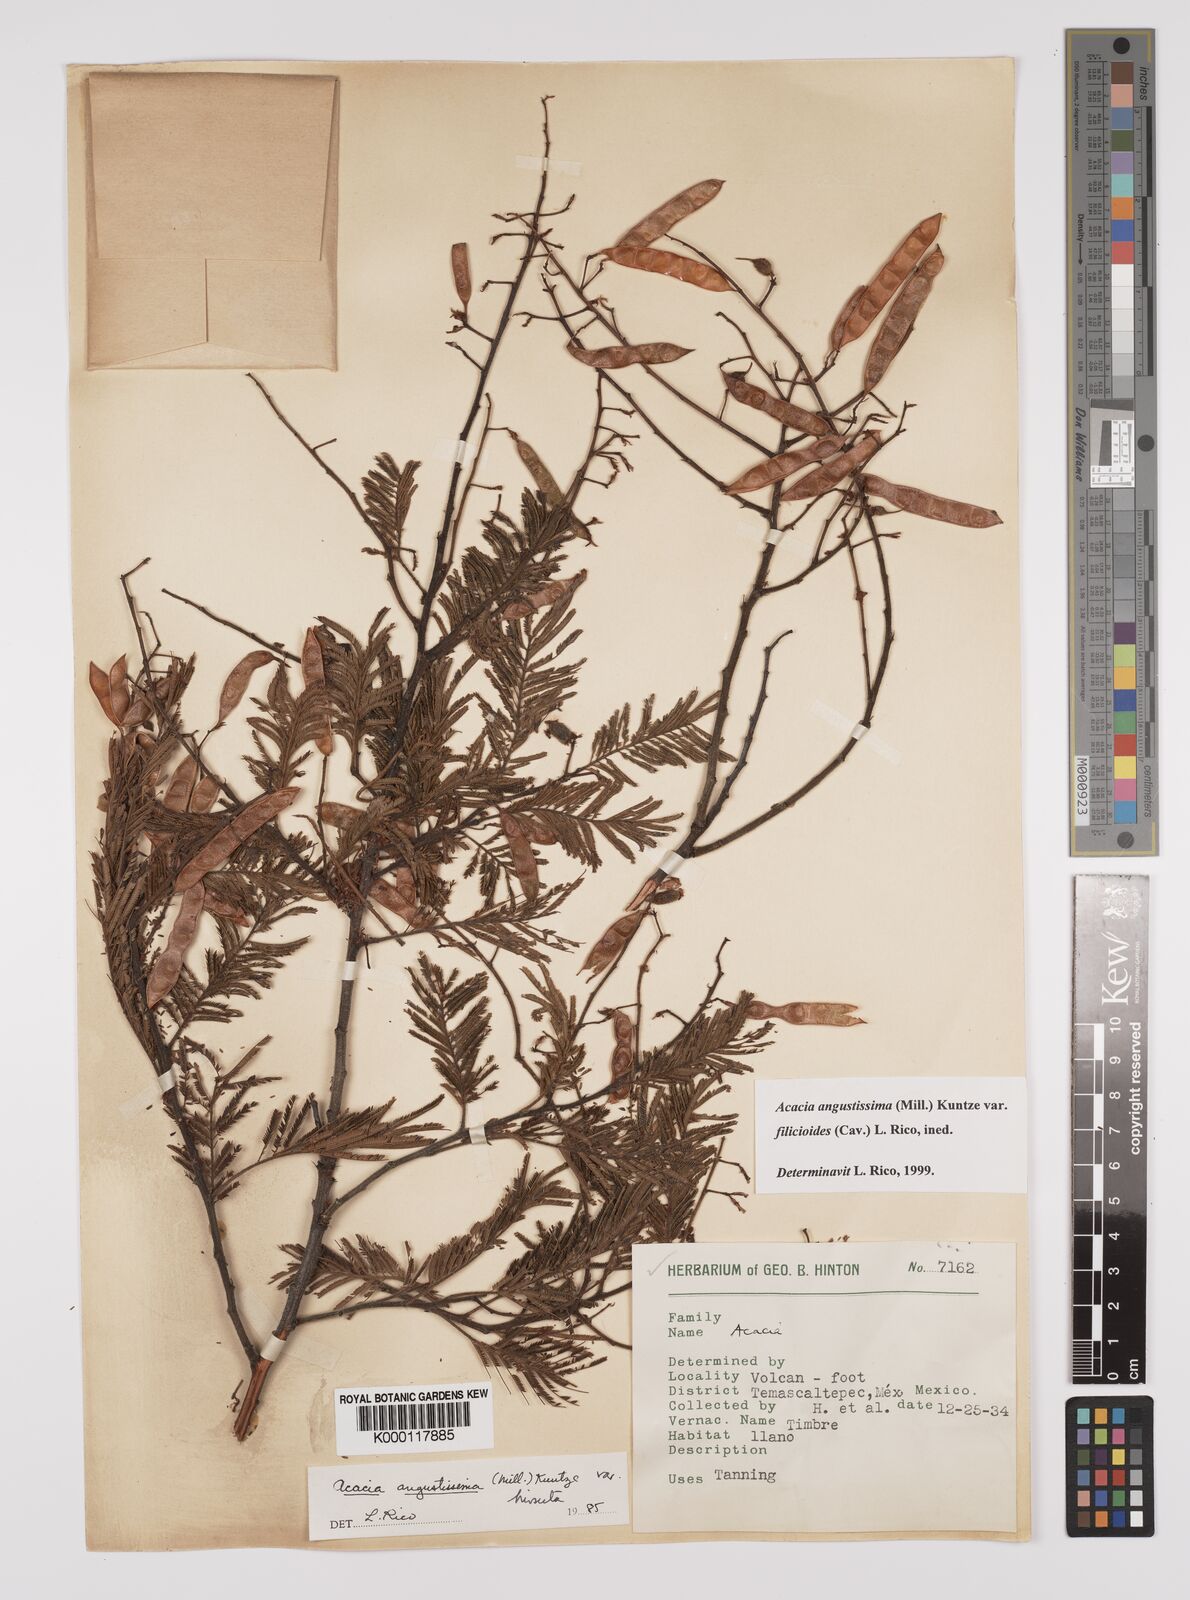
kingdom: Plantae
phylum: Tracheophyta
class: Magnoliopsida
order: Fabales
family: Fabaceae
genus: Acaciella
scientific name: Acaciella angustissima
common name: Prairie acacia
